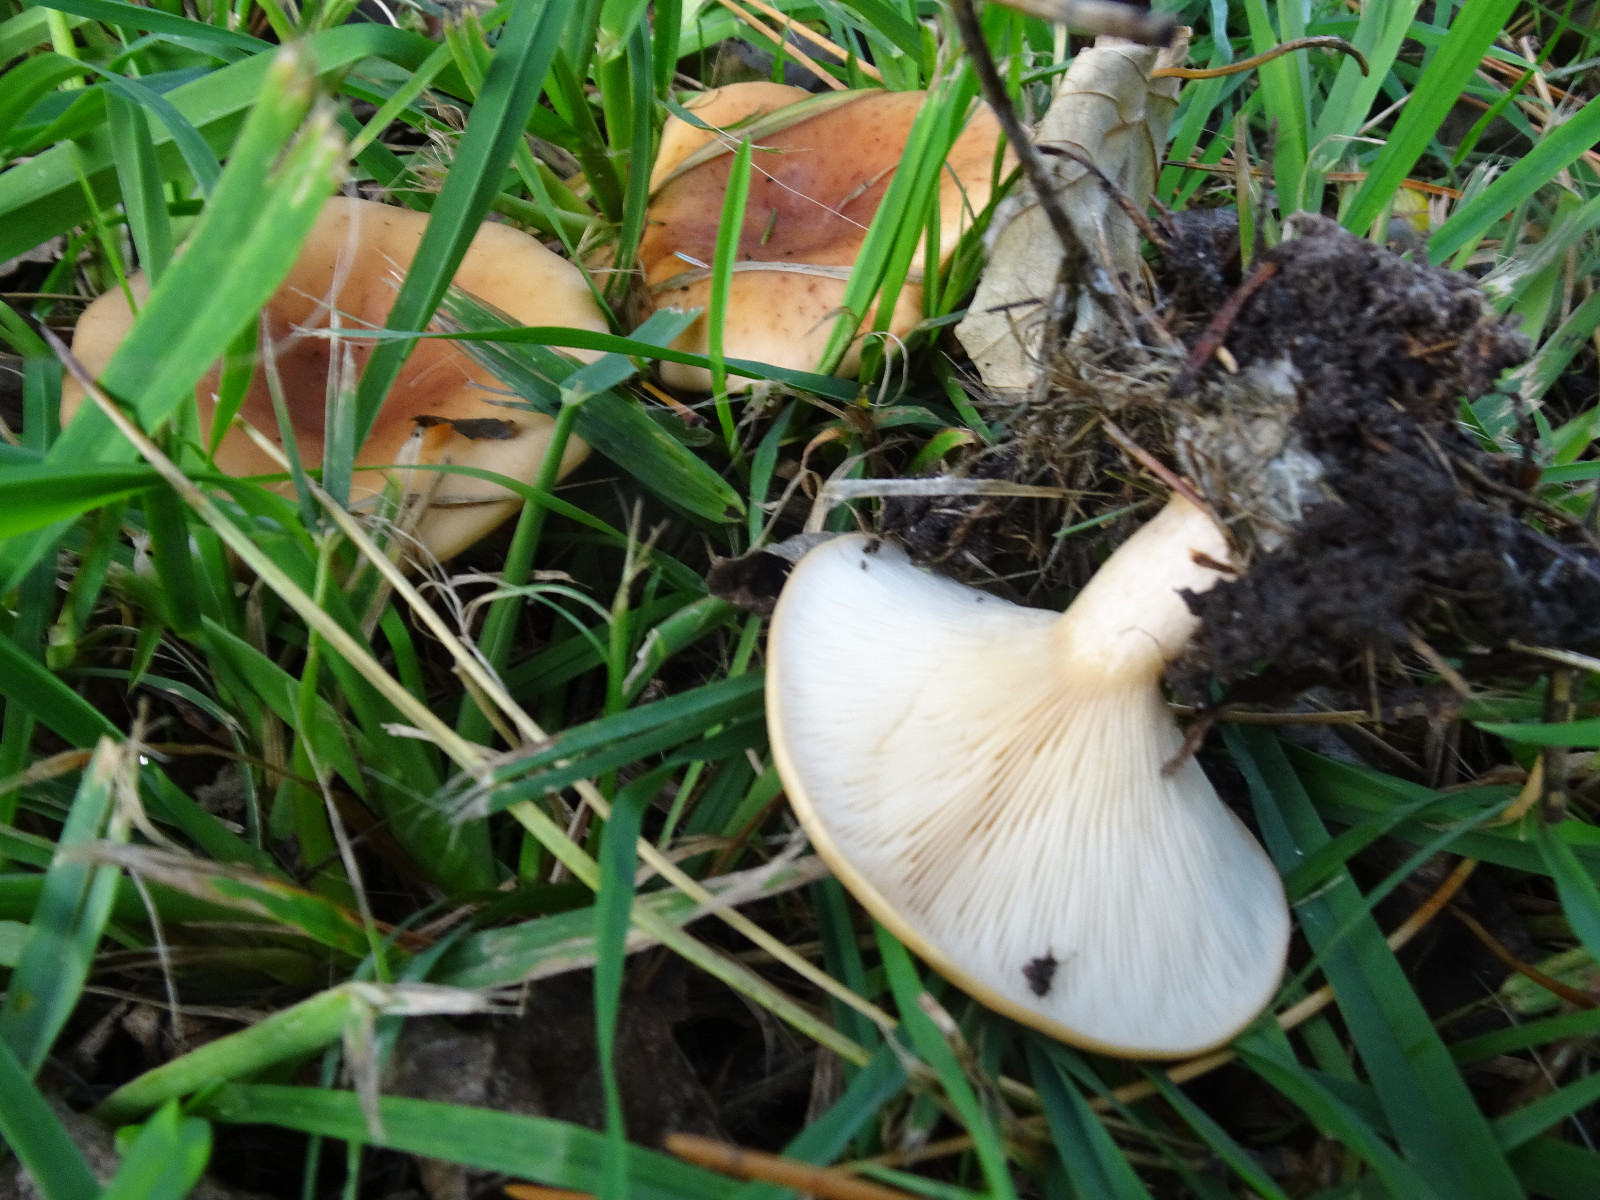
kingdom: Fungi
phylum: Basidiomycota
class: Agaricomycetes
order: Agaricales
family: Tricholomataceae
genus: Paralepista
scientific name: Paralepista flaccida
